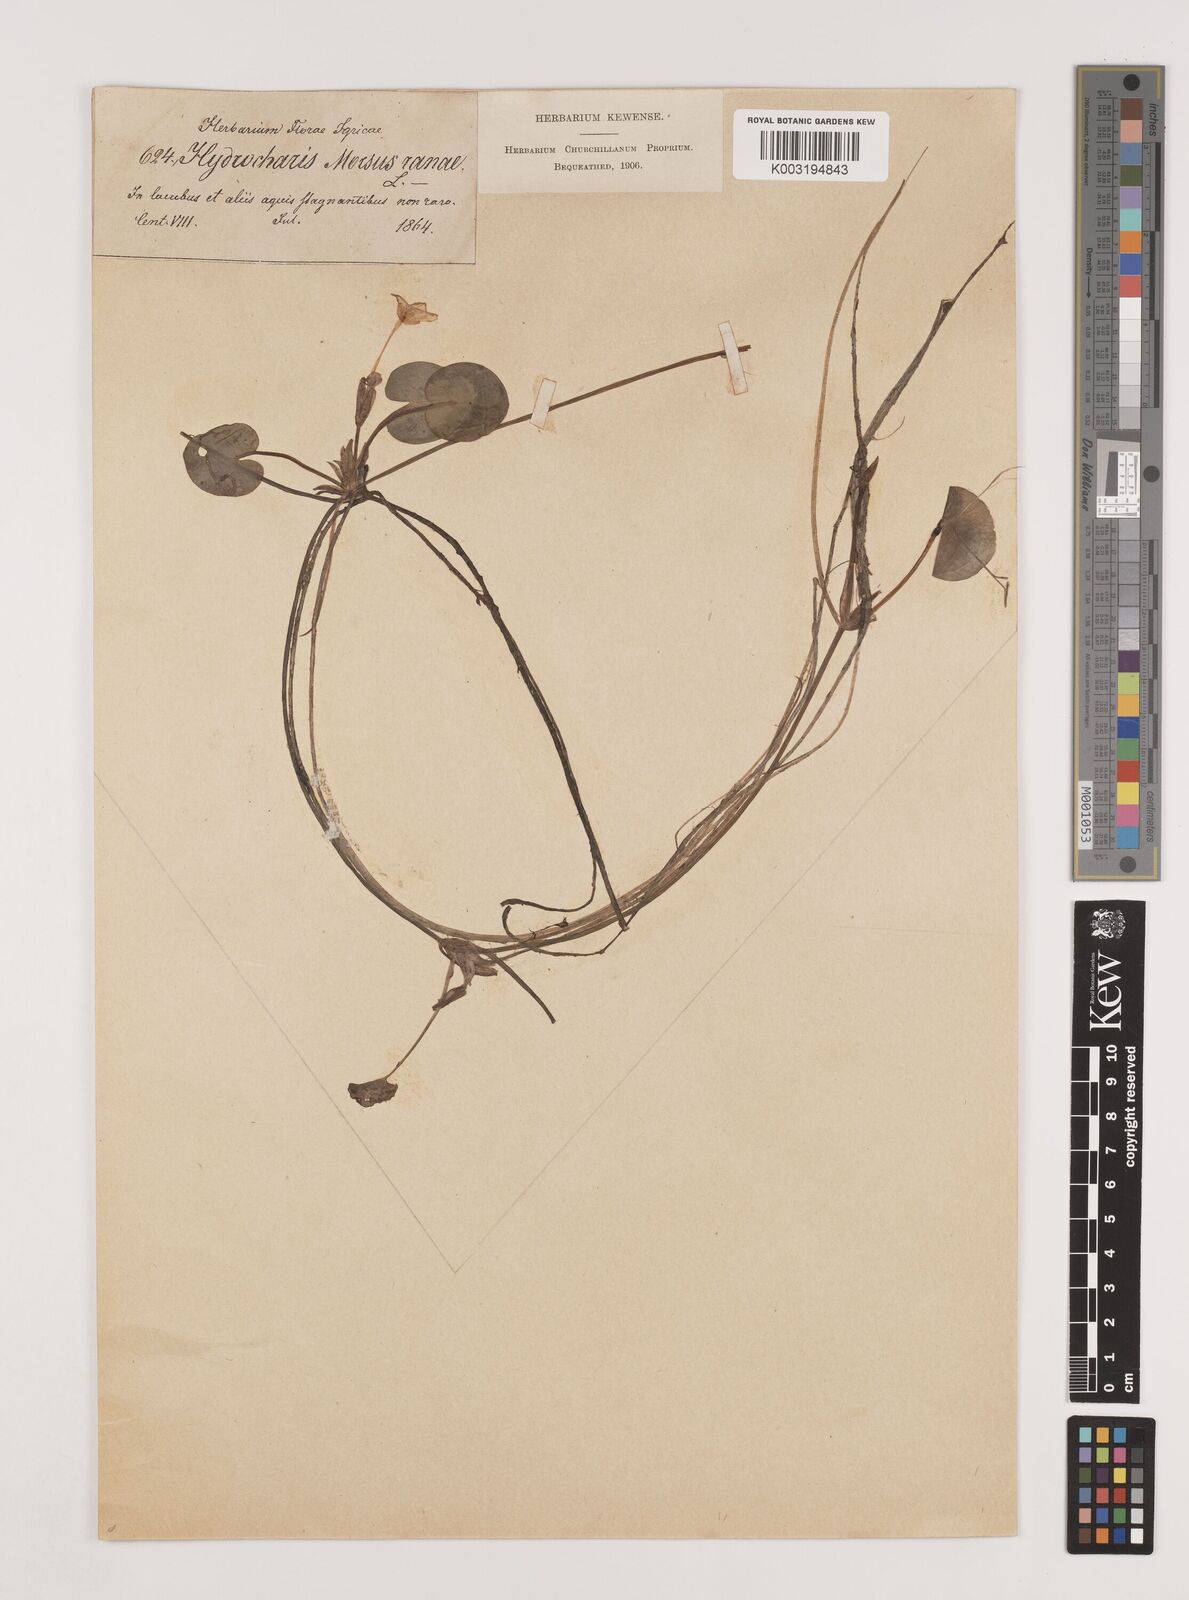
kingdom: Plantae
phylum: Tracheophyta
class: Liliopsida
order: Alismatales
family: Hydrocharitaceae
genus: Hydrocharis
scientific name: Hydrocharis morsus-ranae
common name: Frogbit
